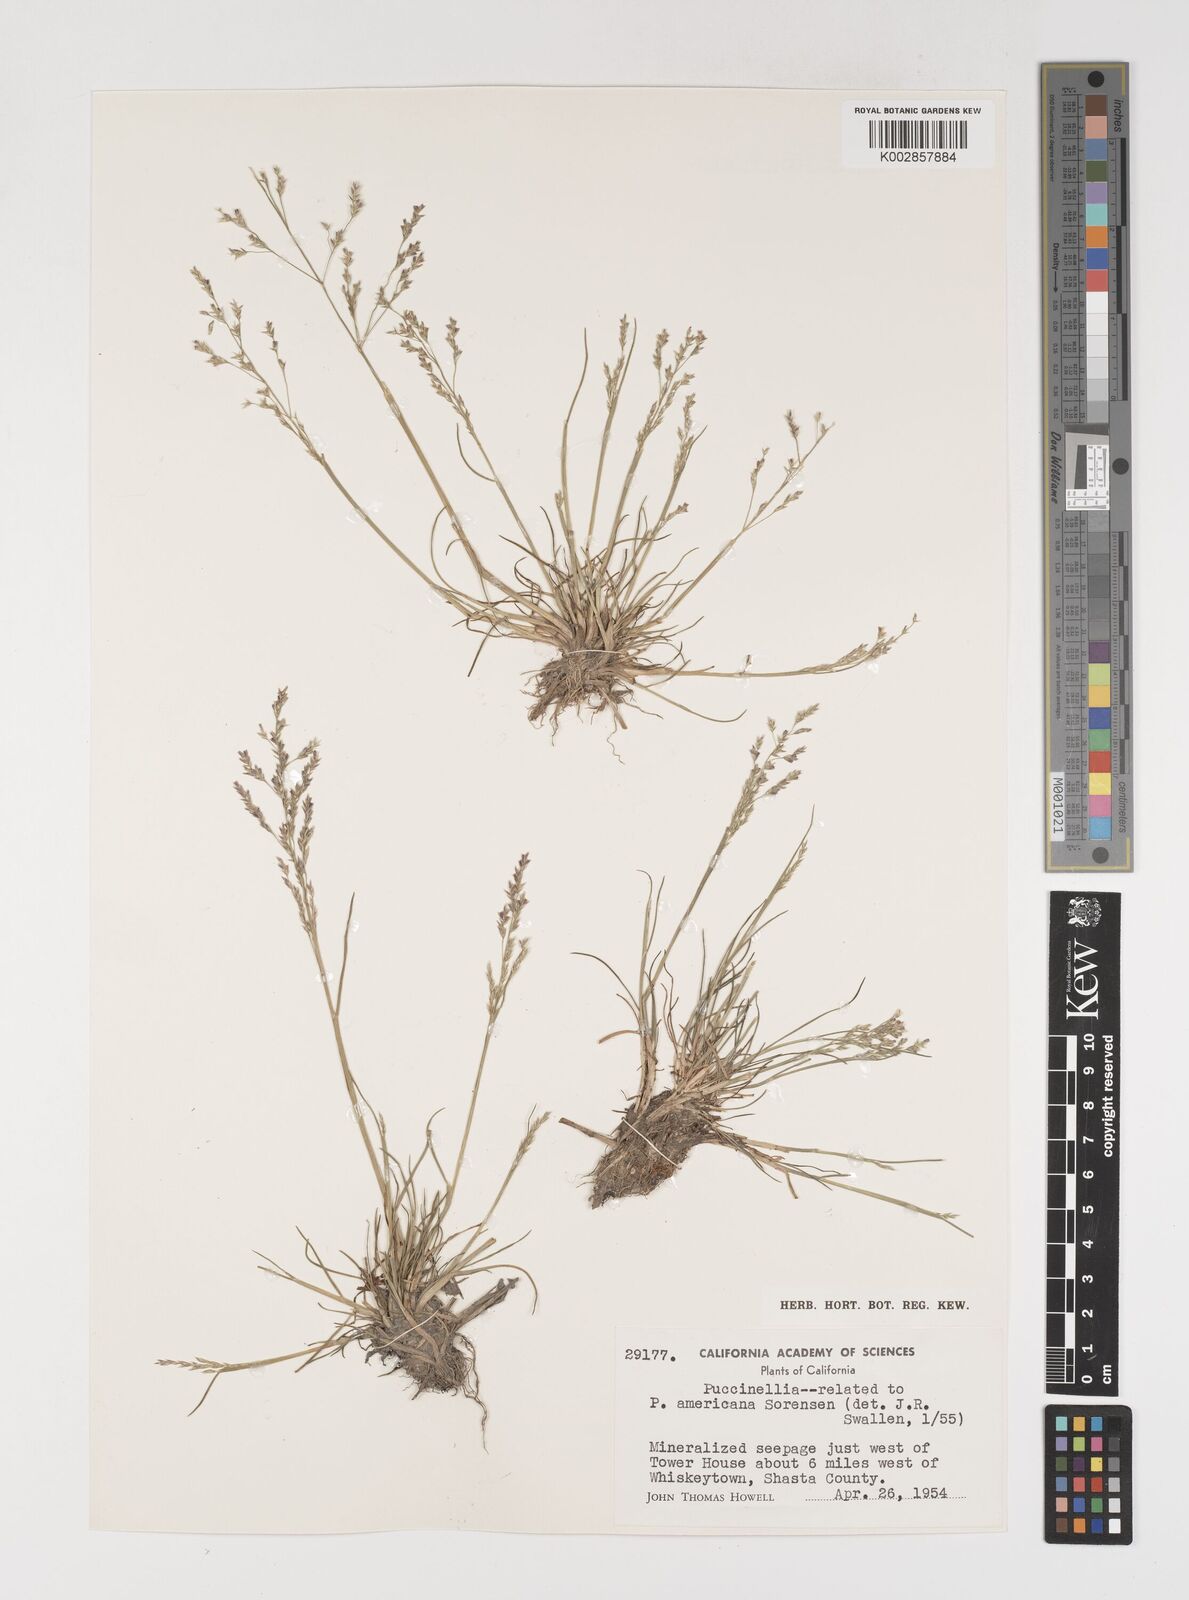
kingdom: Plantae
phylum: Tracheophyta
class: Liliopsida
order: Poales
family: Poaceae
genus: Puccinellia
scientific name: Puccinellia
